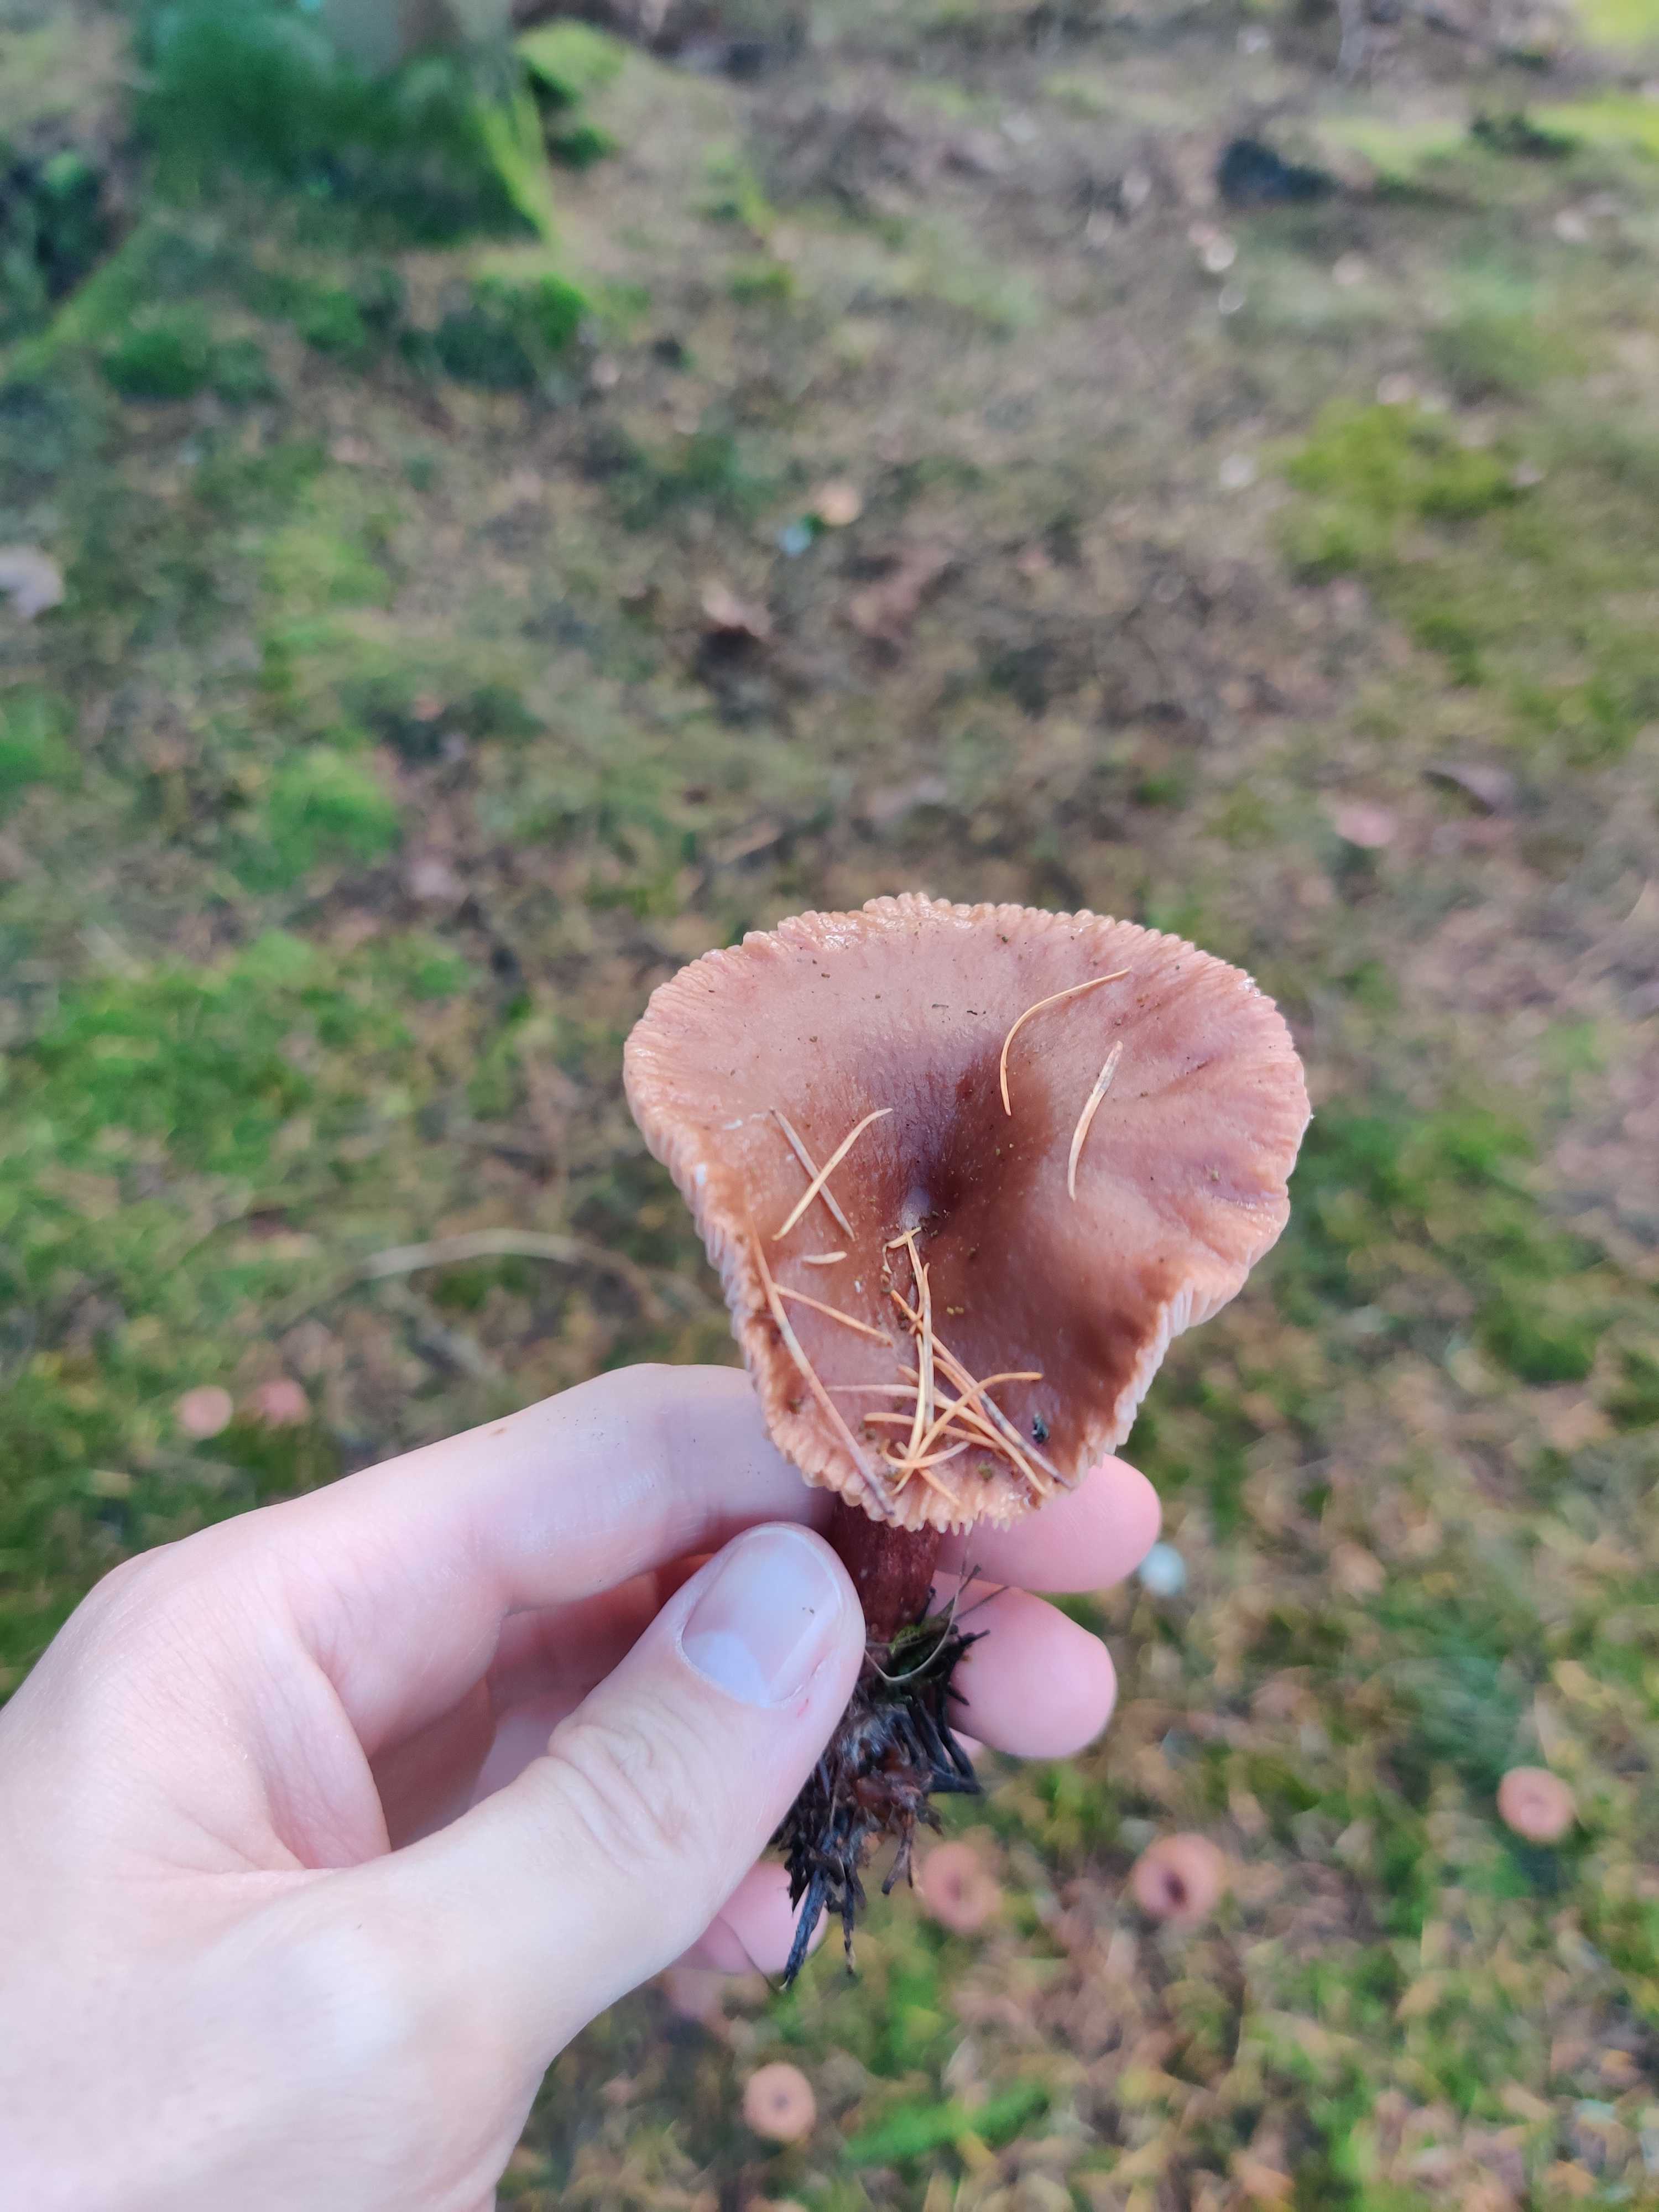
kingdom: Fungi
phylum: Basidiomycota
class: Agaricomycetes
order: Russulales
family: Russulaceae
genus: Lactarius
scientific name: Lactarius hepaticus
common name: leverbrun mælkehat
